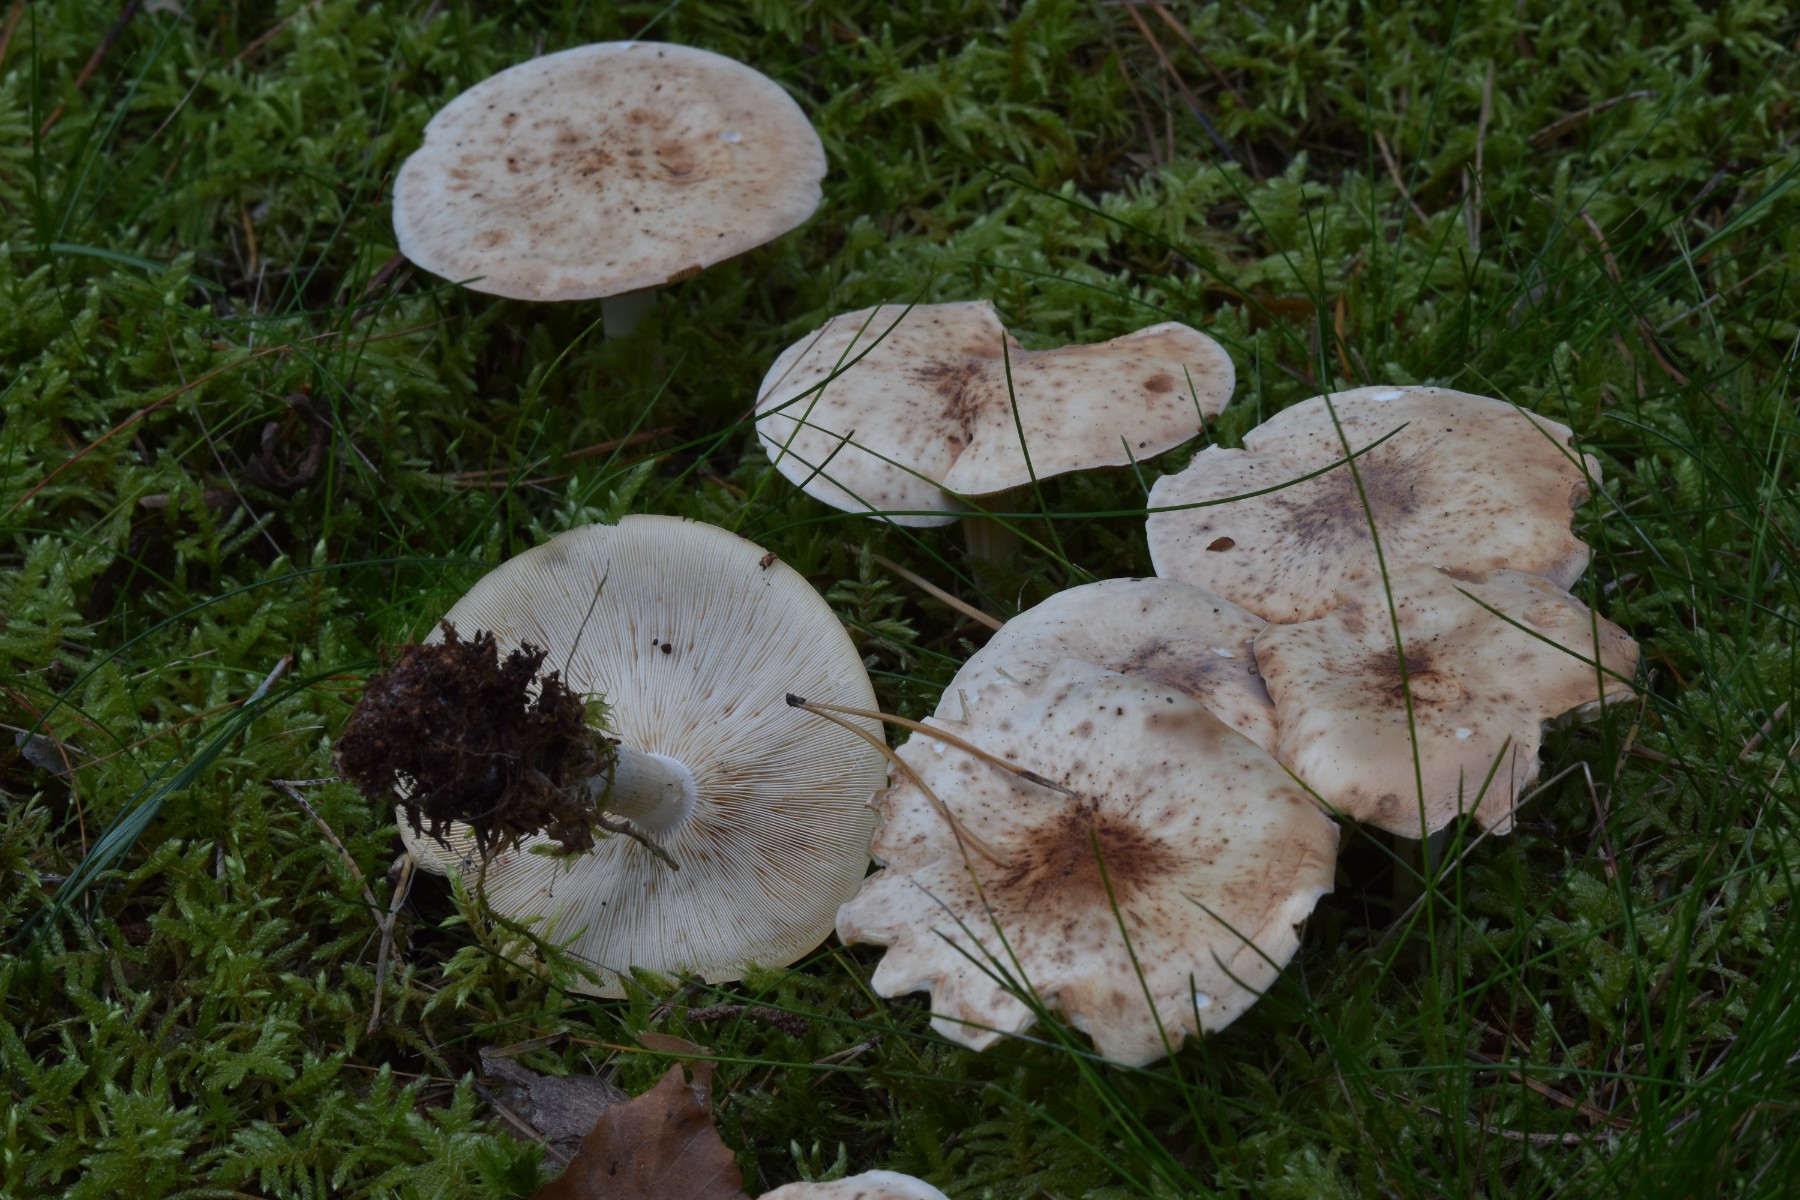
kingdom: Fungi
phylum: Basidiomycota
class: Agaricomycetes
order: Agaricales
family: Omphalotaceae
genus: Rhodocollybia
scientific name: Rhodocollybia maculata
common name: plettet fladhat
